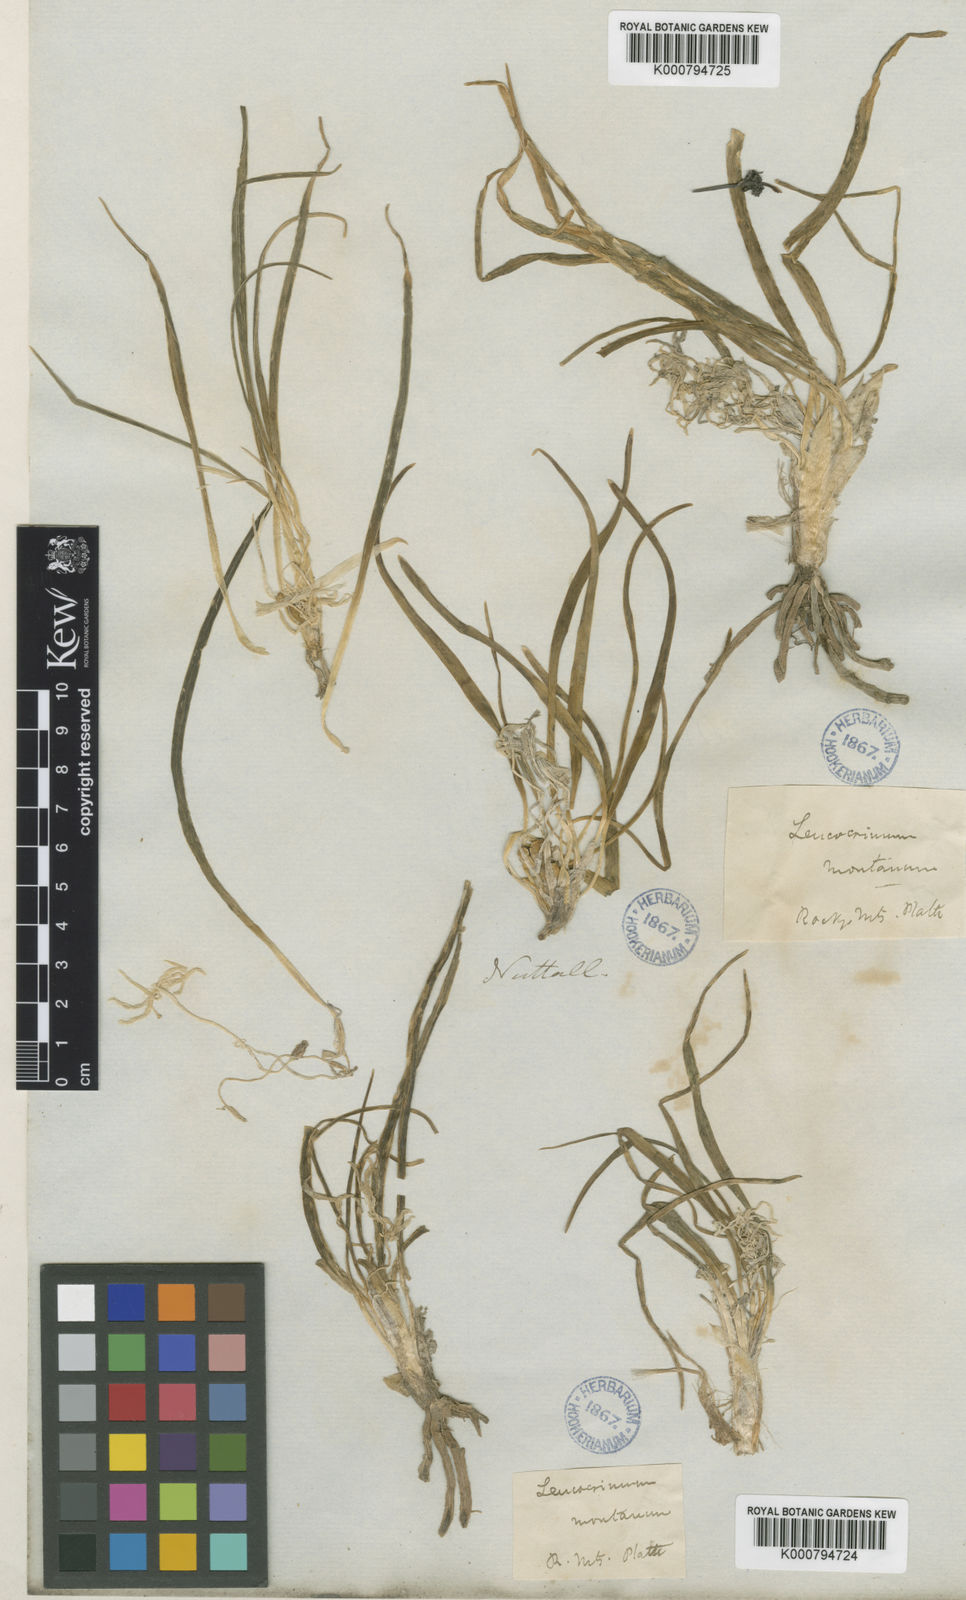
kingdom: Plantae
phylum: Tracheophyta
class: Liliopsida
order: Asparagales
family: Asparagaceae
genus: Leucocrinum
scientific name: Leucocrinum montanum
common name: Mountain-lily
